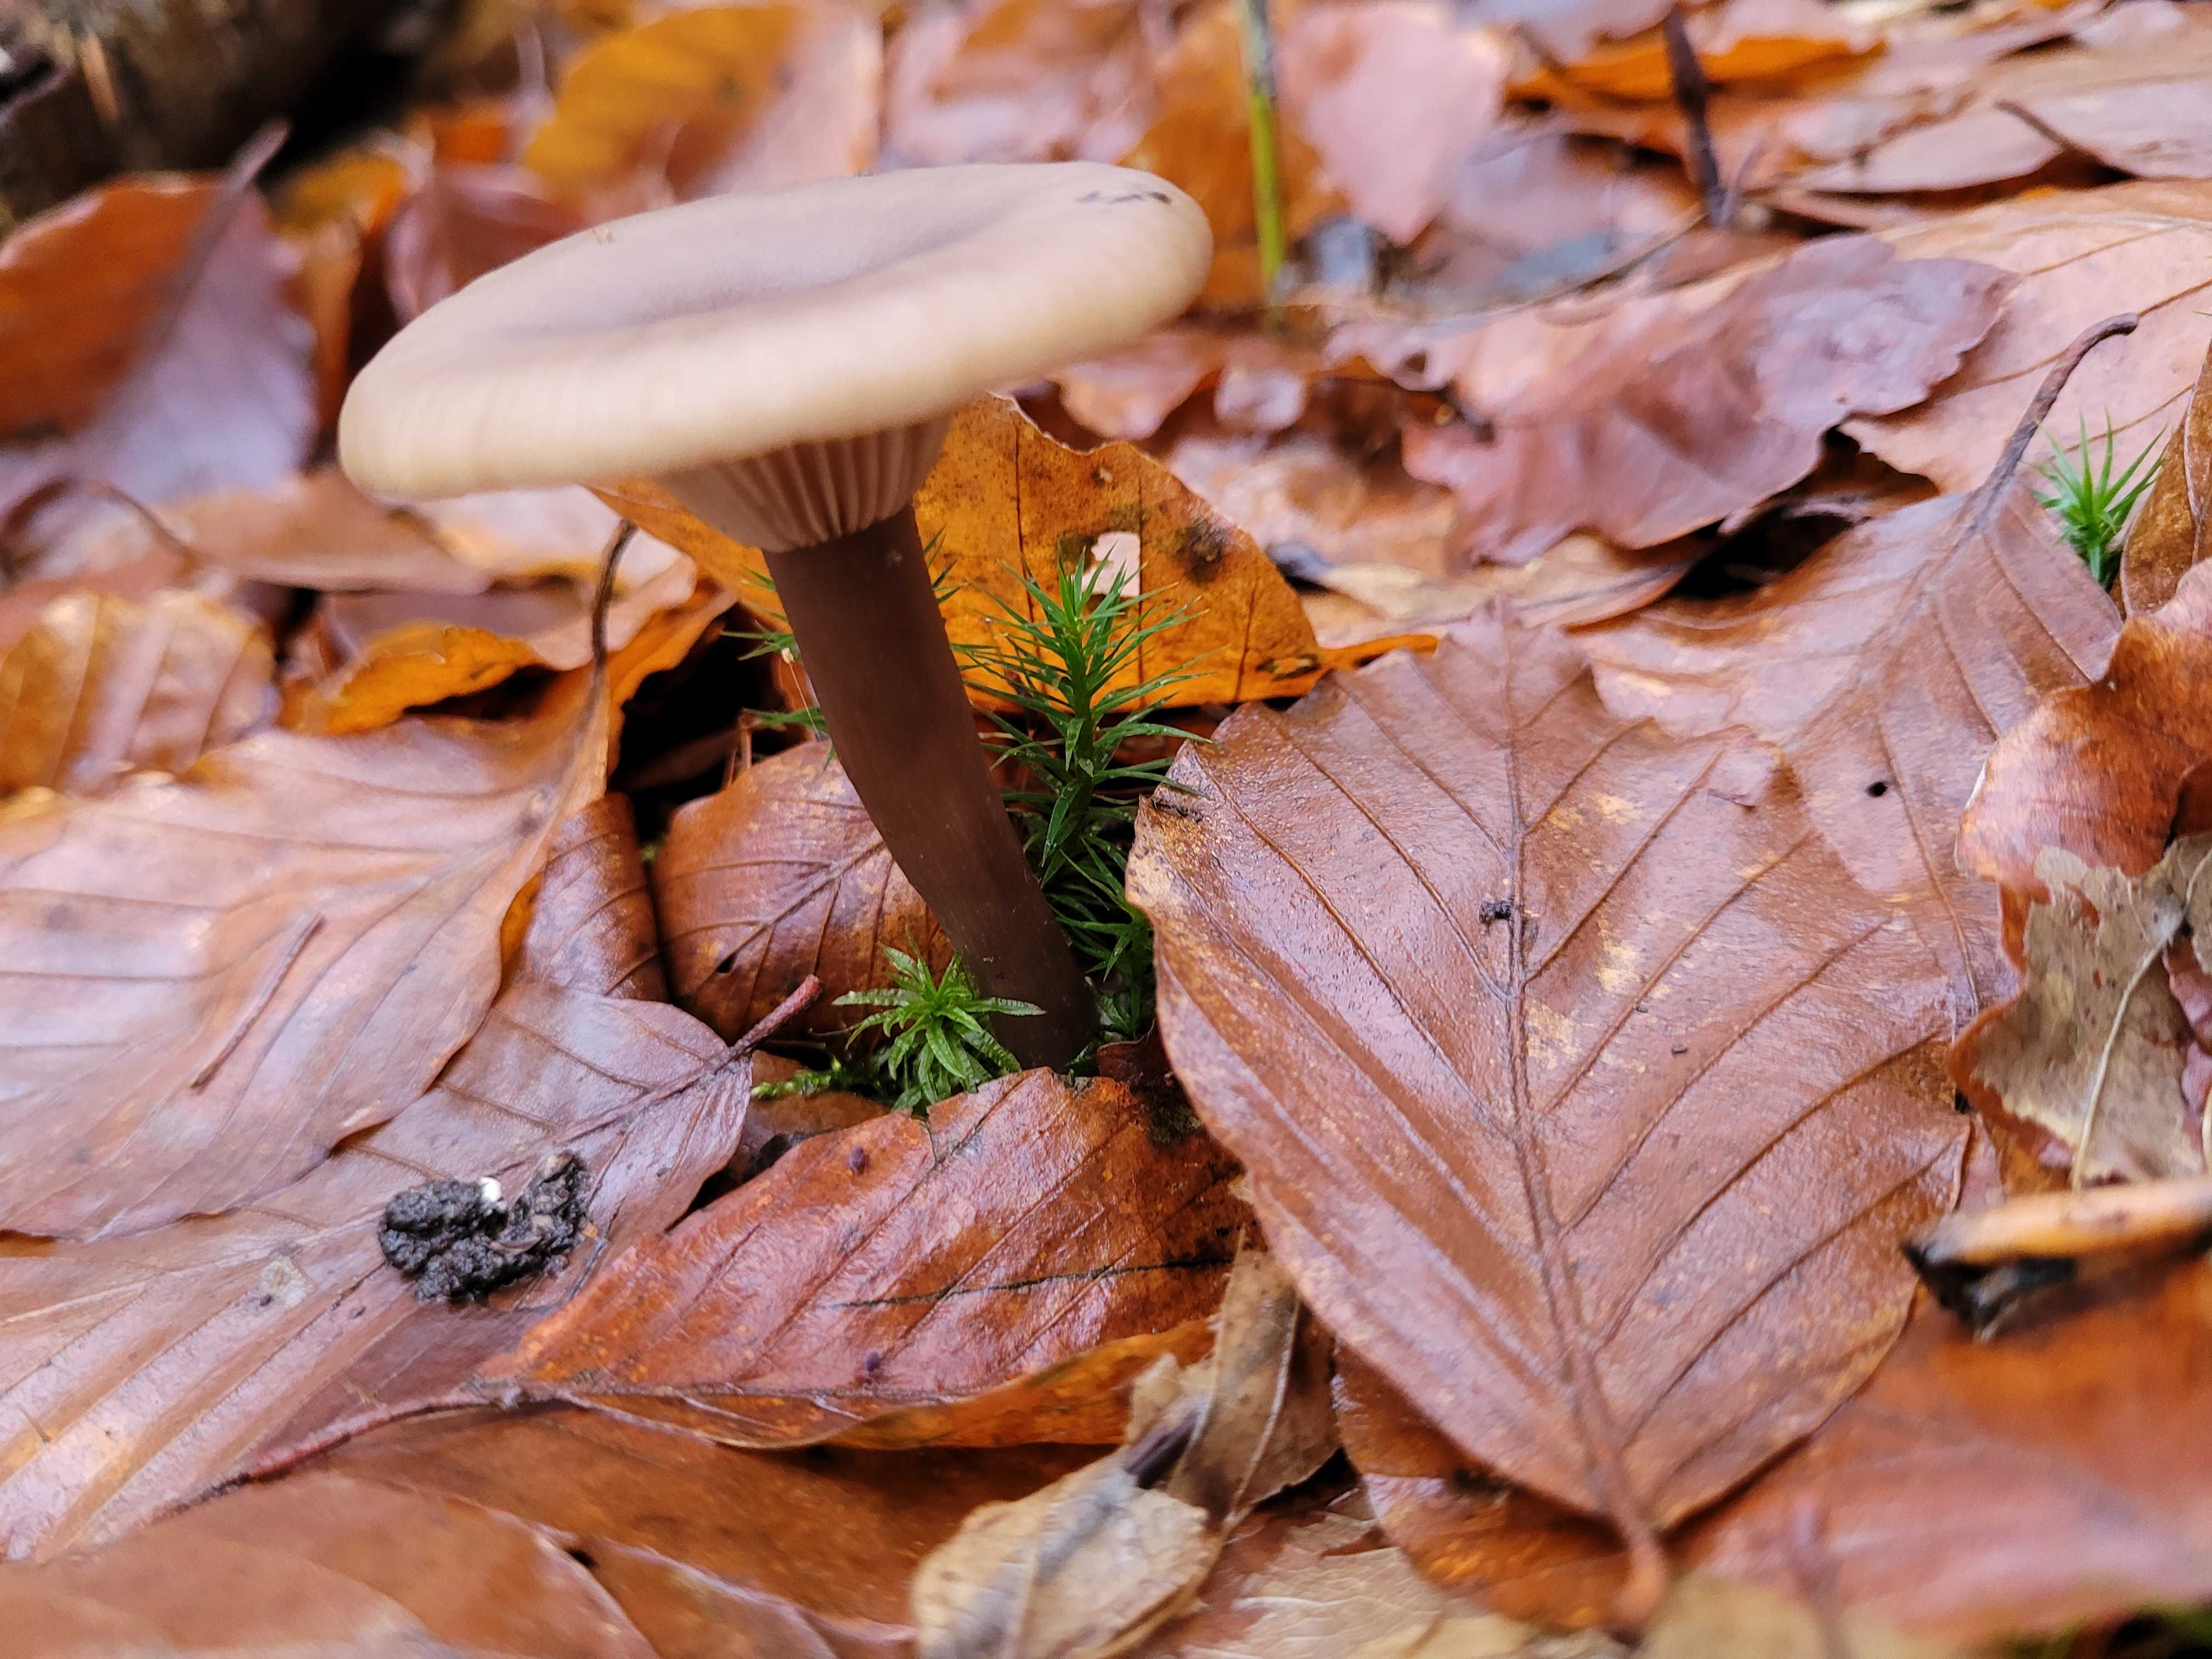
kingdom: Fungi
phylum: Basidiomycota
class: Agaricomycetes
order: Agaricales
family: Pseudoclitocybaceae
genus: Pseudoclitocybe
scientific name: Pseudoclitocybe cyathiformis
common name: almindelig bægertragthat
